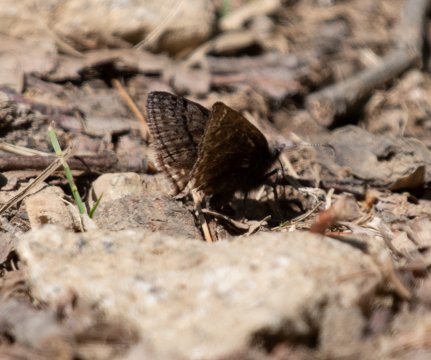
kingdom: Animalia
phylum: Arthropoda
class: Insecta
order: Lepidoptera
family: Hesperiidae
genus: Erynnis
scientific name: Erynnis brizo
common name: Sleepy Duskywing
